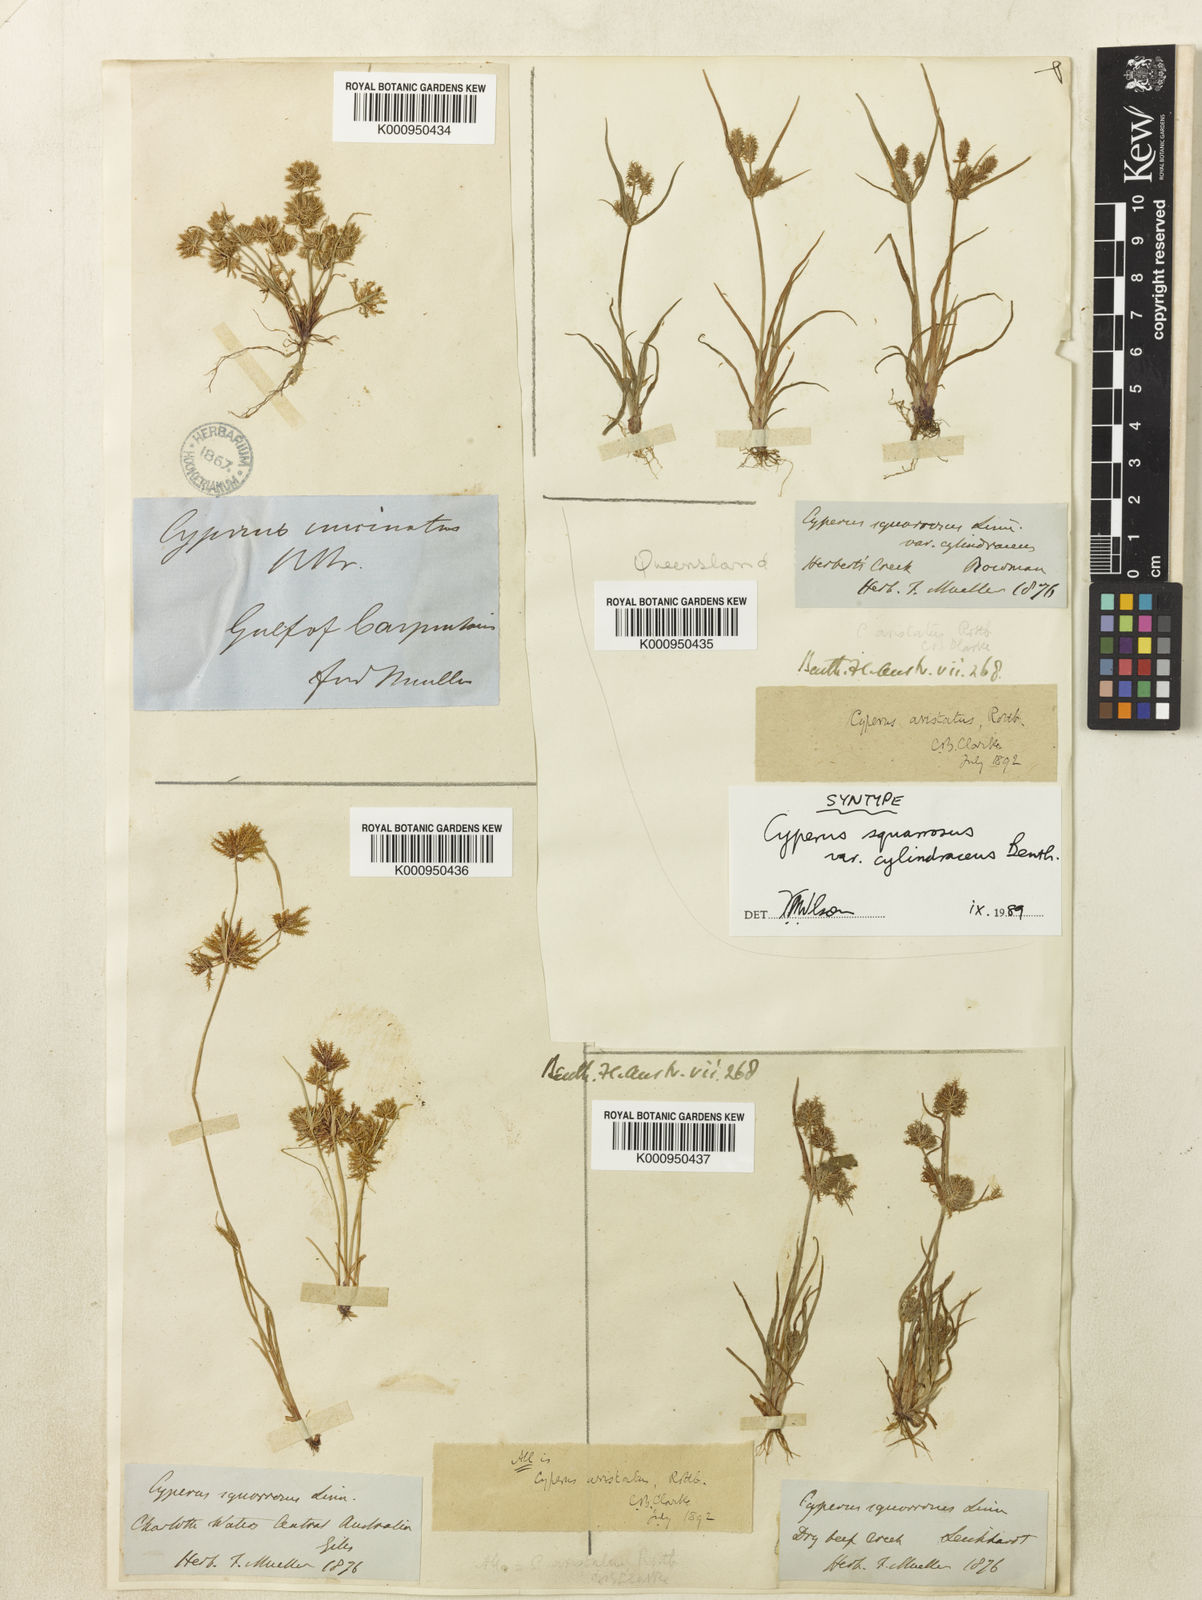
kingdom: Plantae
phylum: Tracheophyta
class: Liliopsida
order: Poales
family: Cyperaceae
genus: Cyperus
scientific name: Cyperus squarrosus
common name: Awned cyperus
